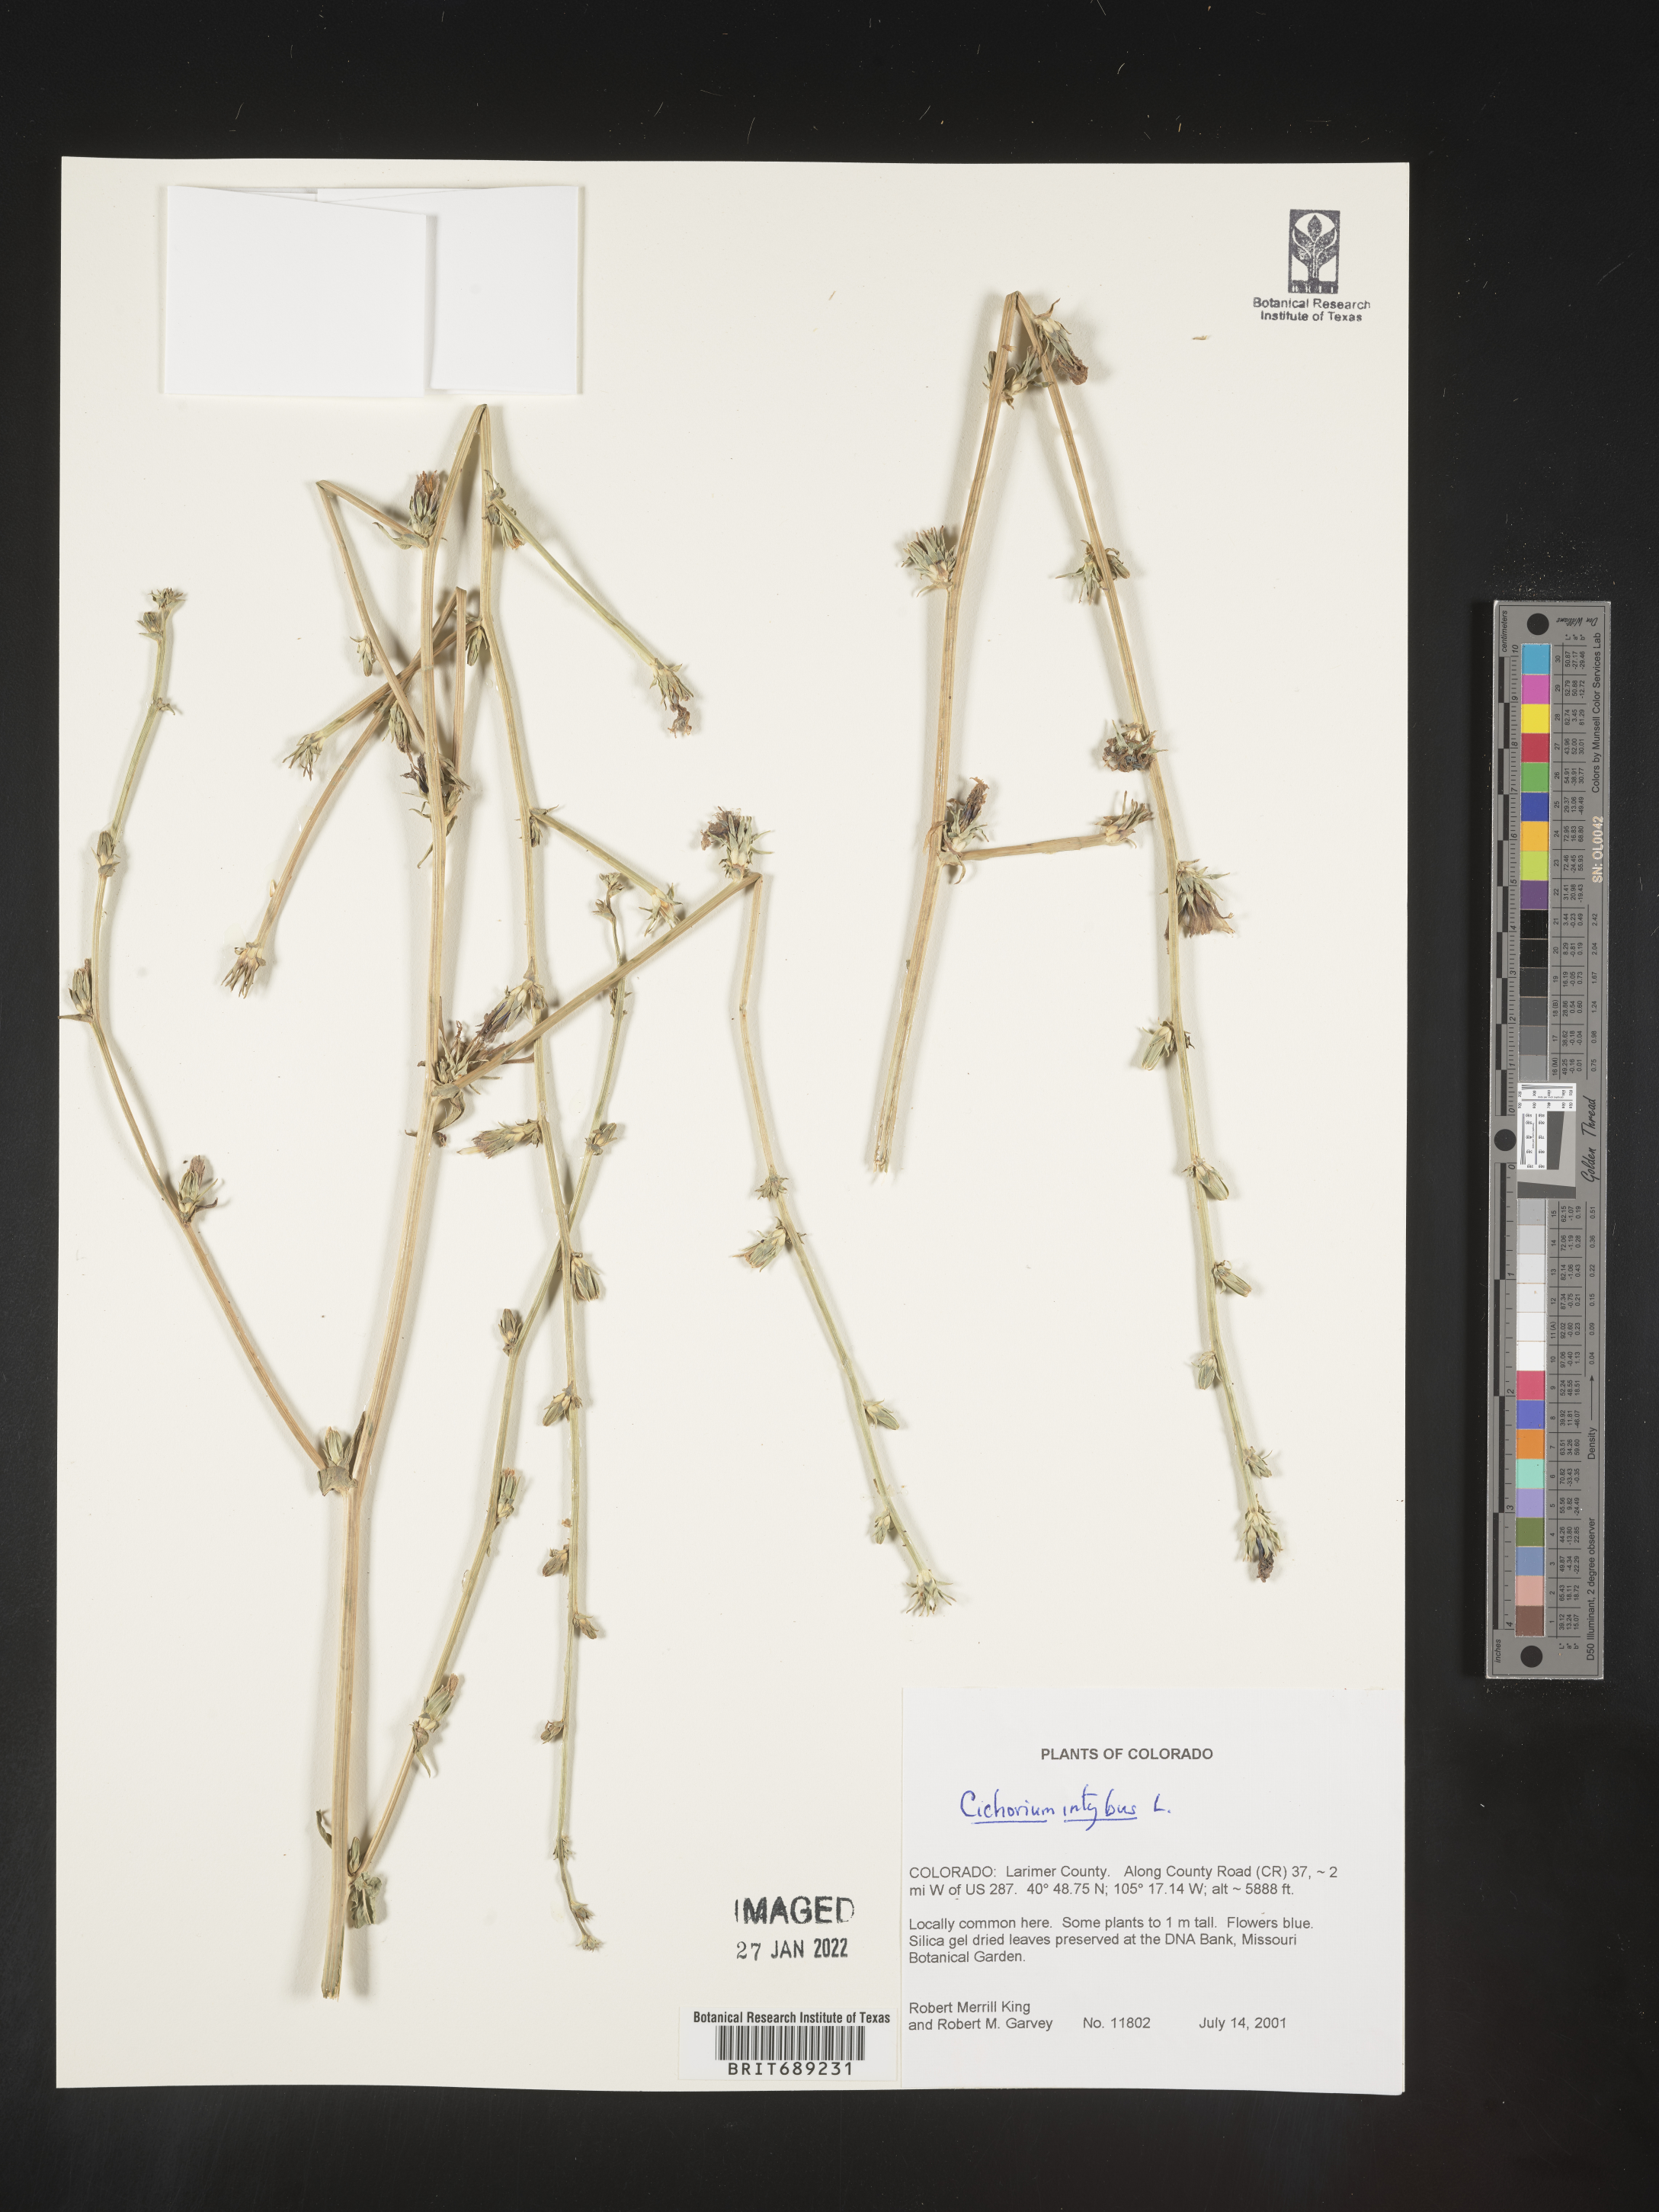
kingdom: Plantae
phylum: Tracheophyta
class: Magnoliopsida
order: Asterales
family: Asteraceae
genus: Cichorium
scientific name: Cichorium intybus
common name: Chicory
